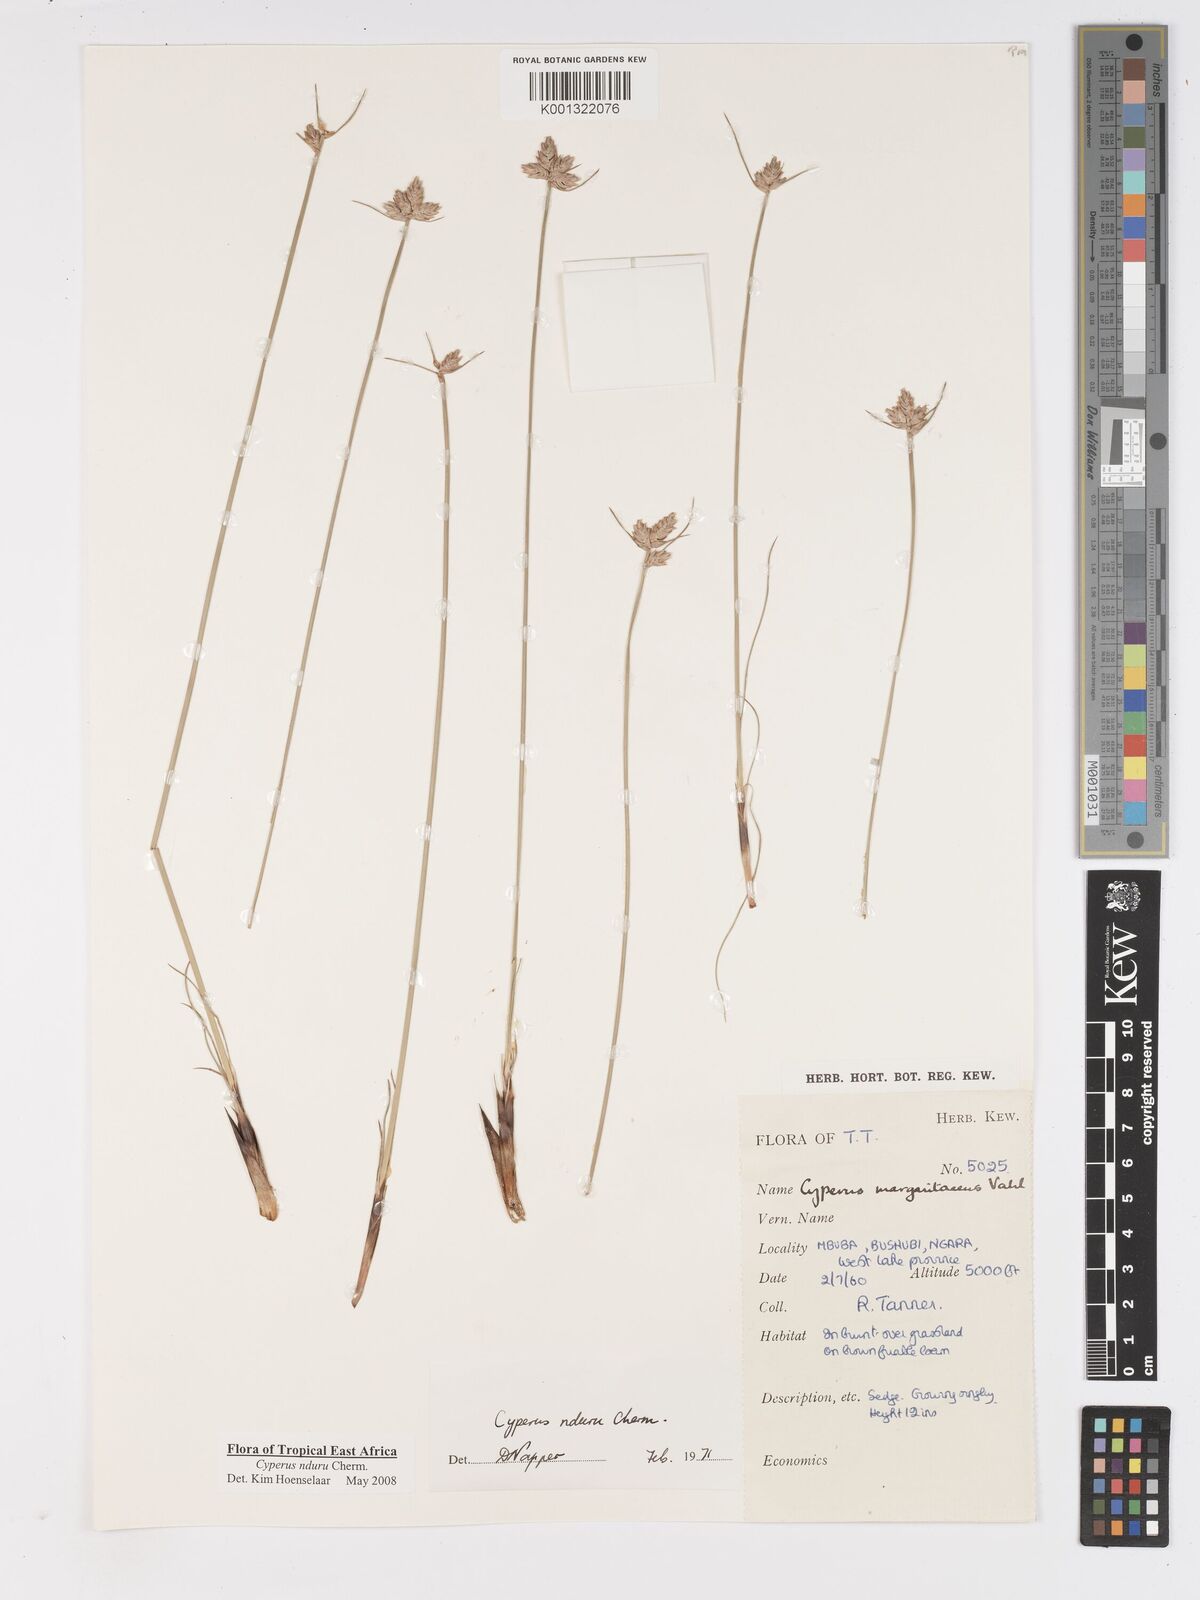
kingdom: Plantae
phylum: Tracheophyta
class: Liliopsida
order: Poales
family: Cyperaceae
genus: Cyperus
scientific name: Cyperus nduru
